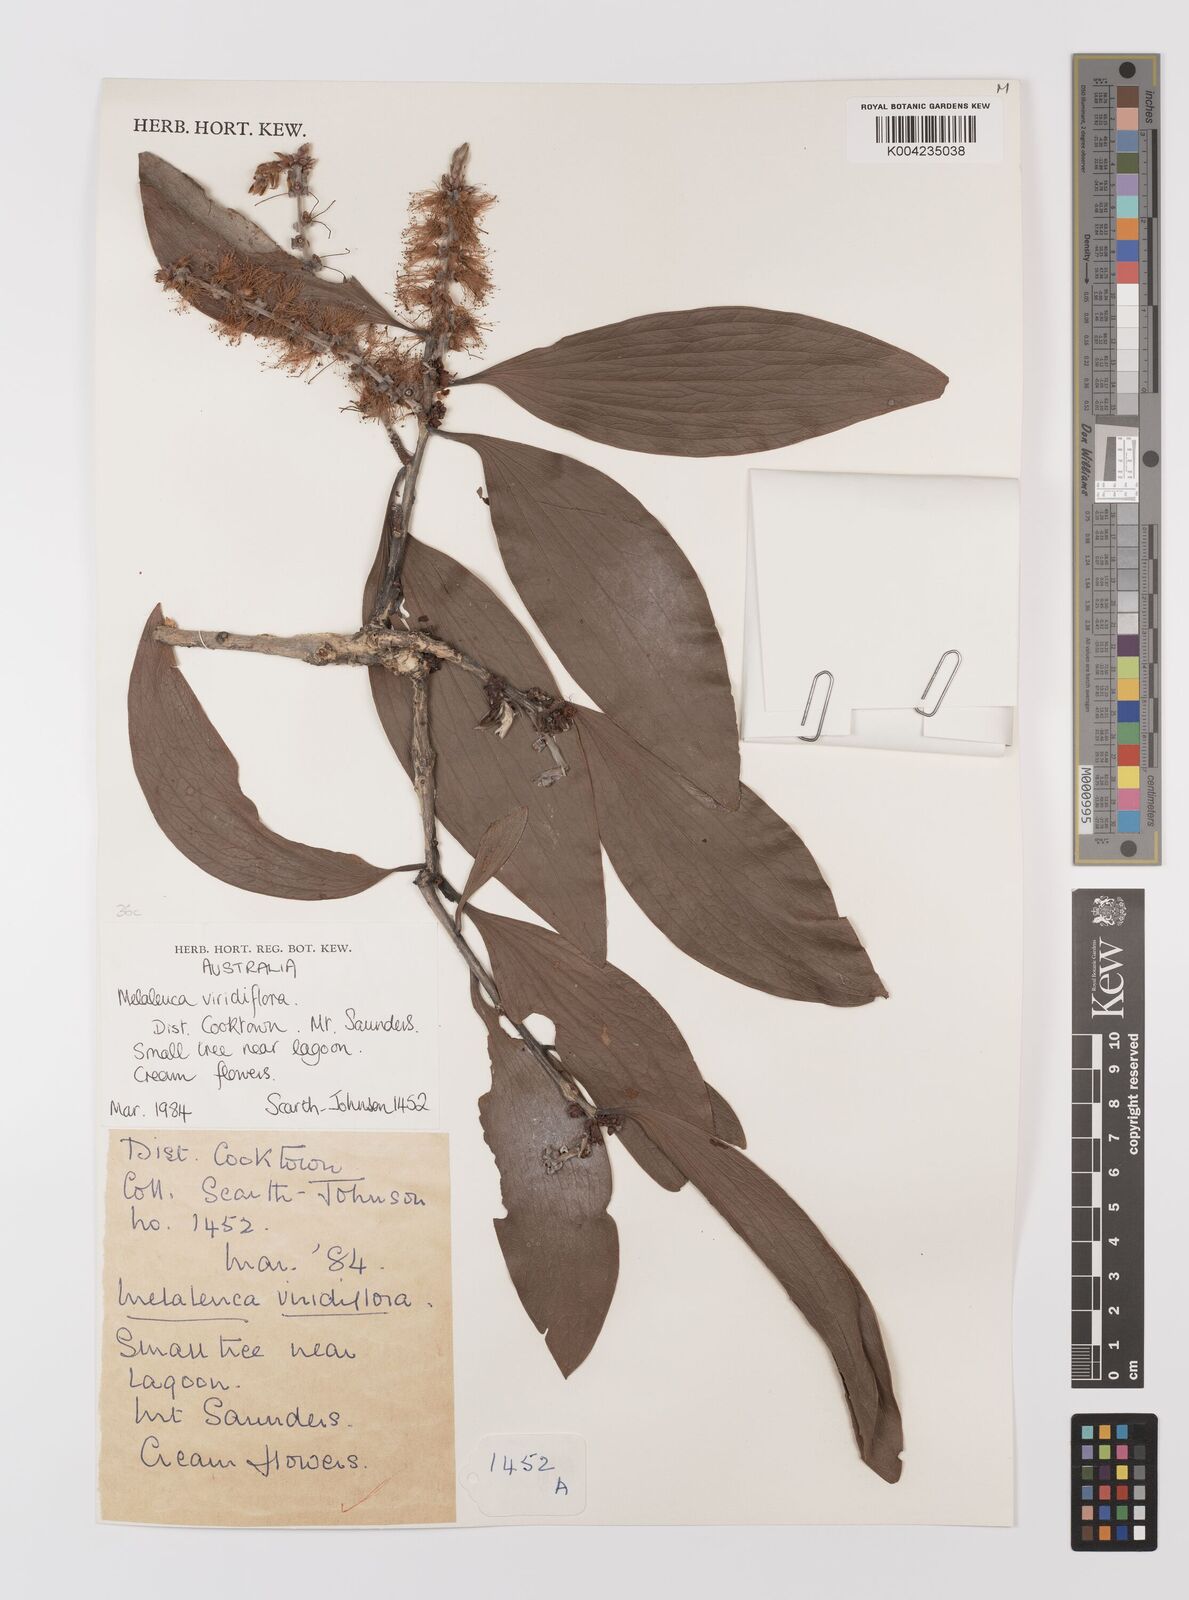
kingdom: Plantae
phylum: Tracheophyta
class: Magnoliopsida
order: Myrtales
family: Myrtaceae
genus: Melaleuca
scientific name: Melaleuca viridiflora
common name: Brown-leaved paperbark
